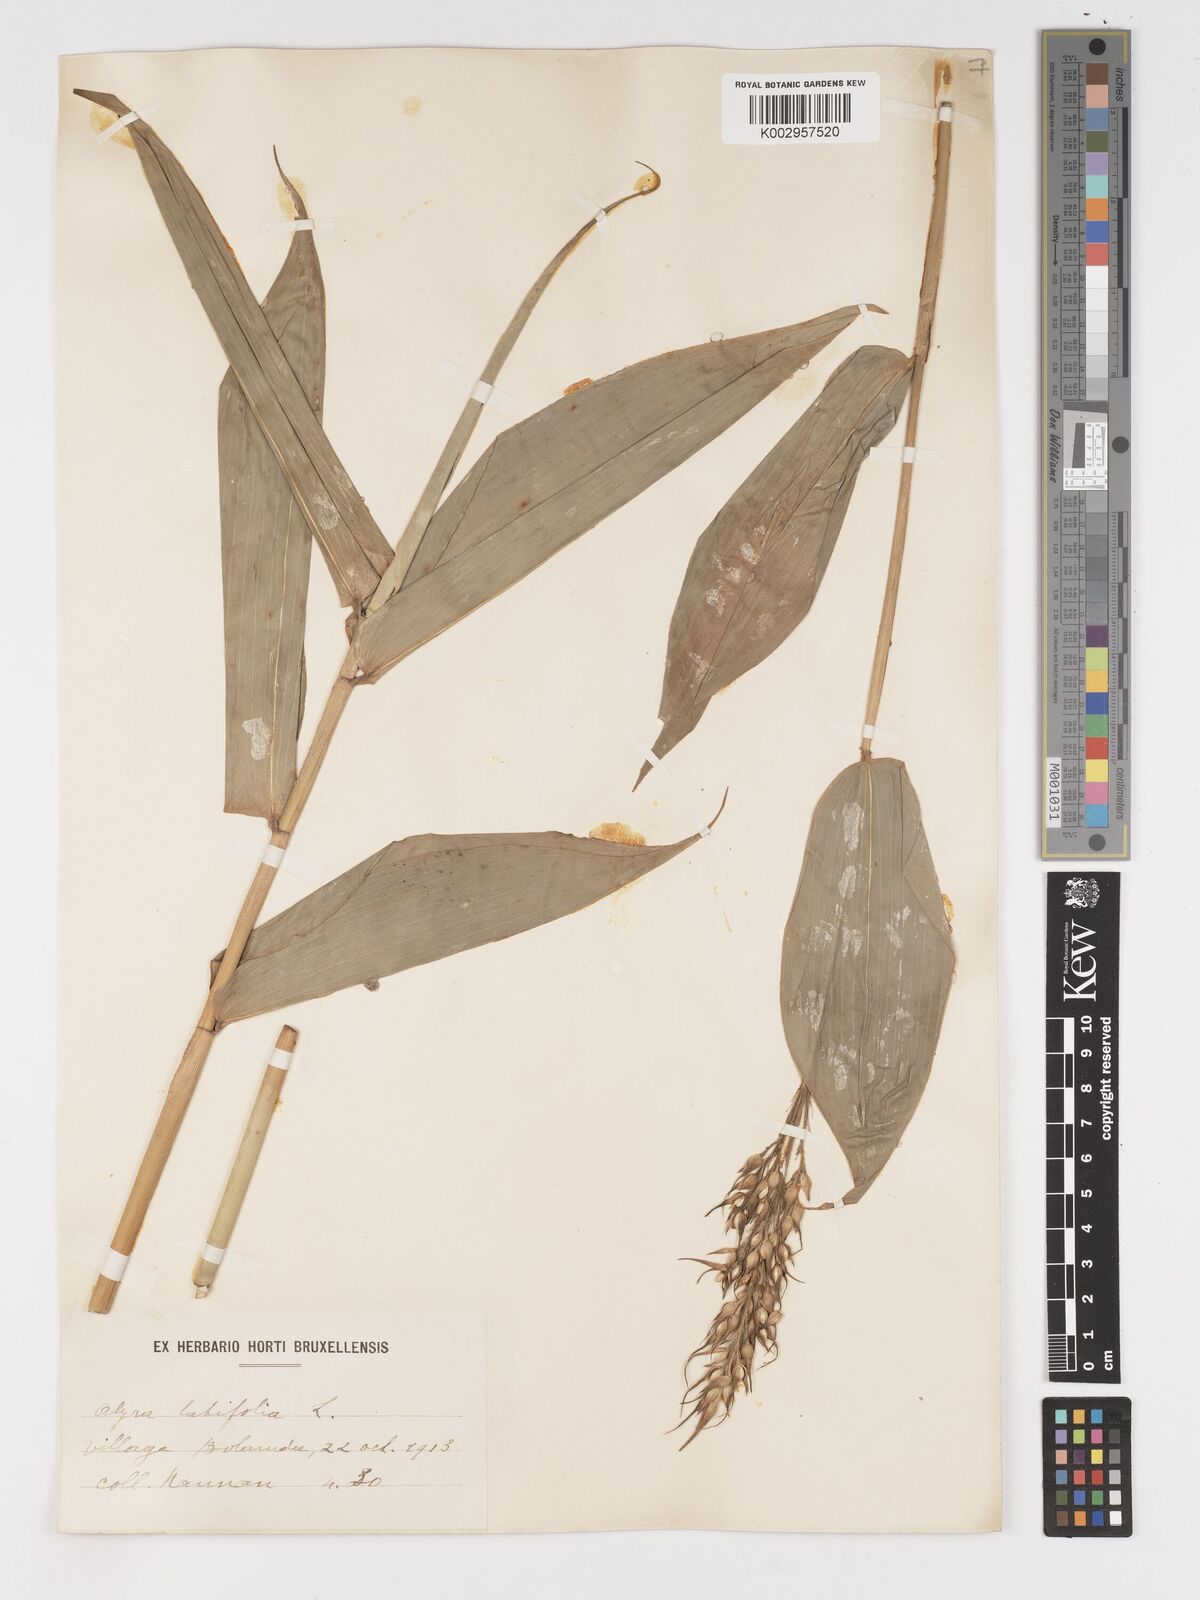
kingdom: Plantae
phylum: Tracheophyta
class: Liliopsida
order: Poales
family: Poaceae
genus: Olyra
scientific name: Olyra latifolia
